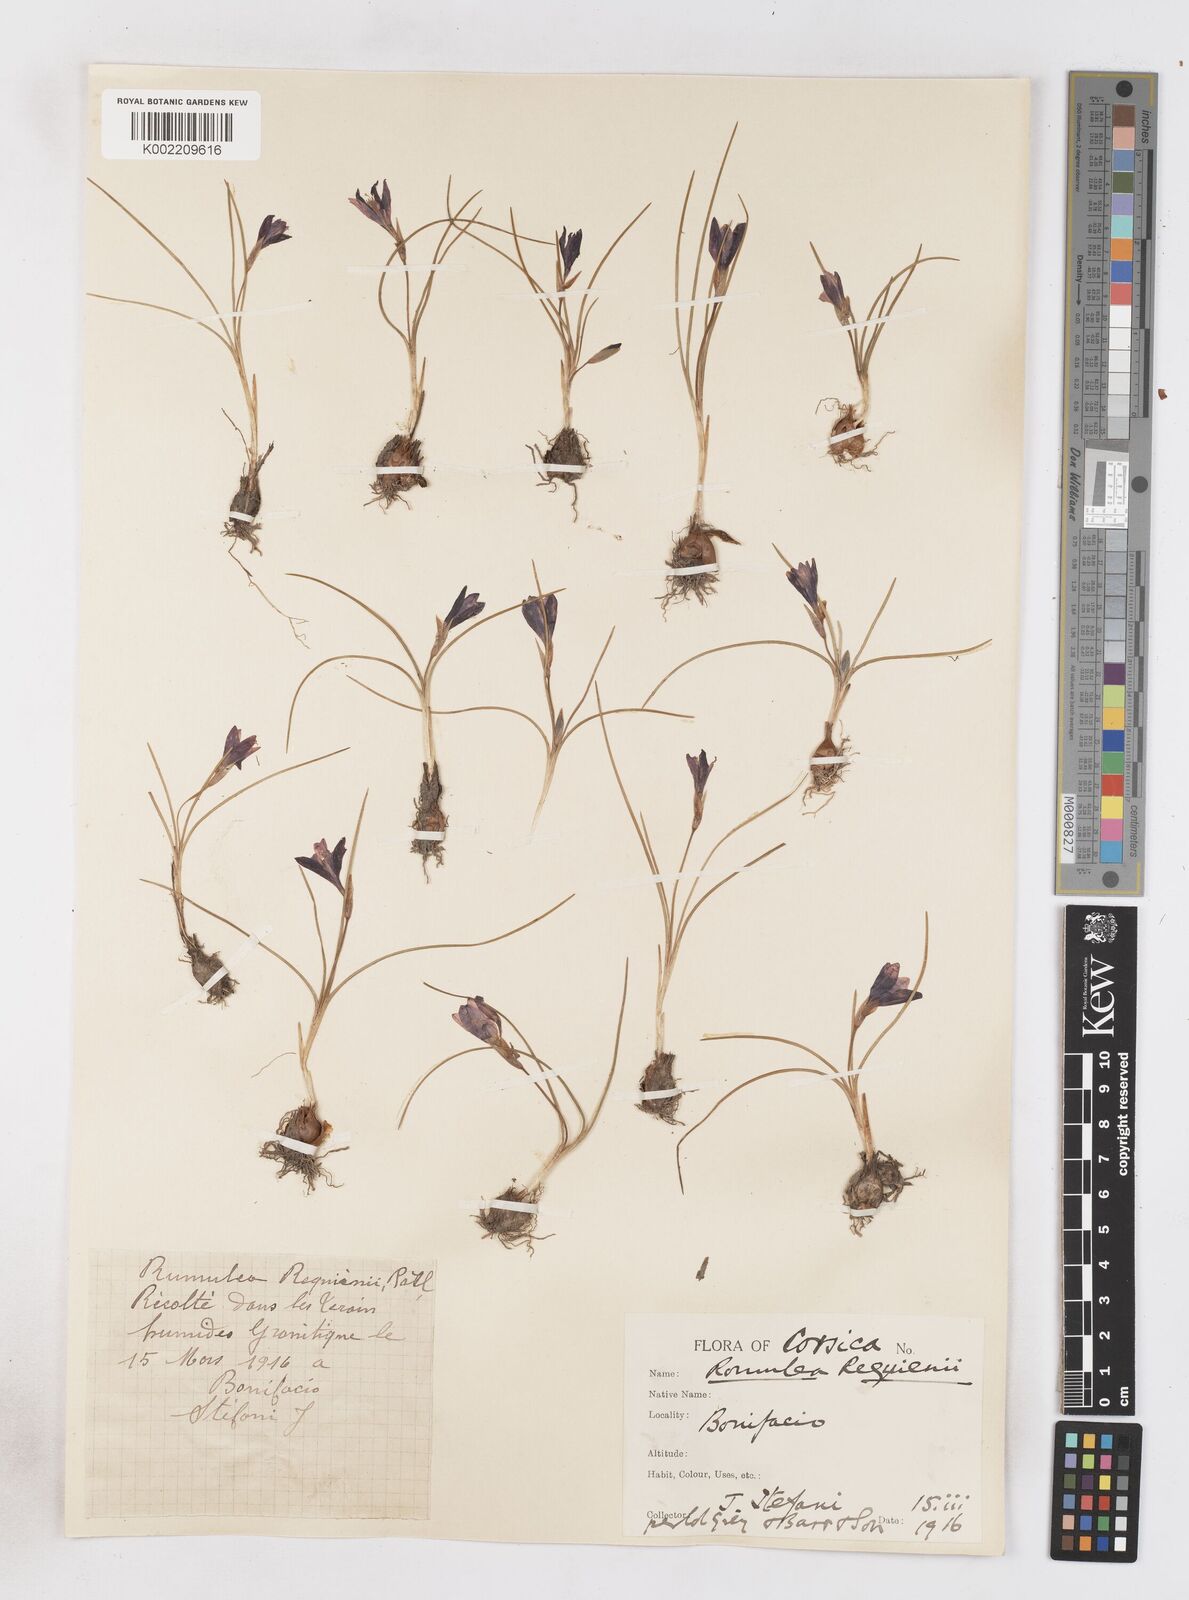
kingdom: Plantae
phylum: Tracheophyta
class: Liliopsida
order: Asparagales
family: Iridaceae
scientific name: Iridaceae
